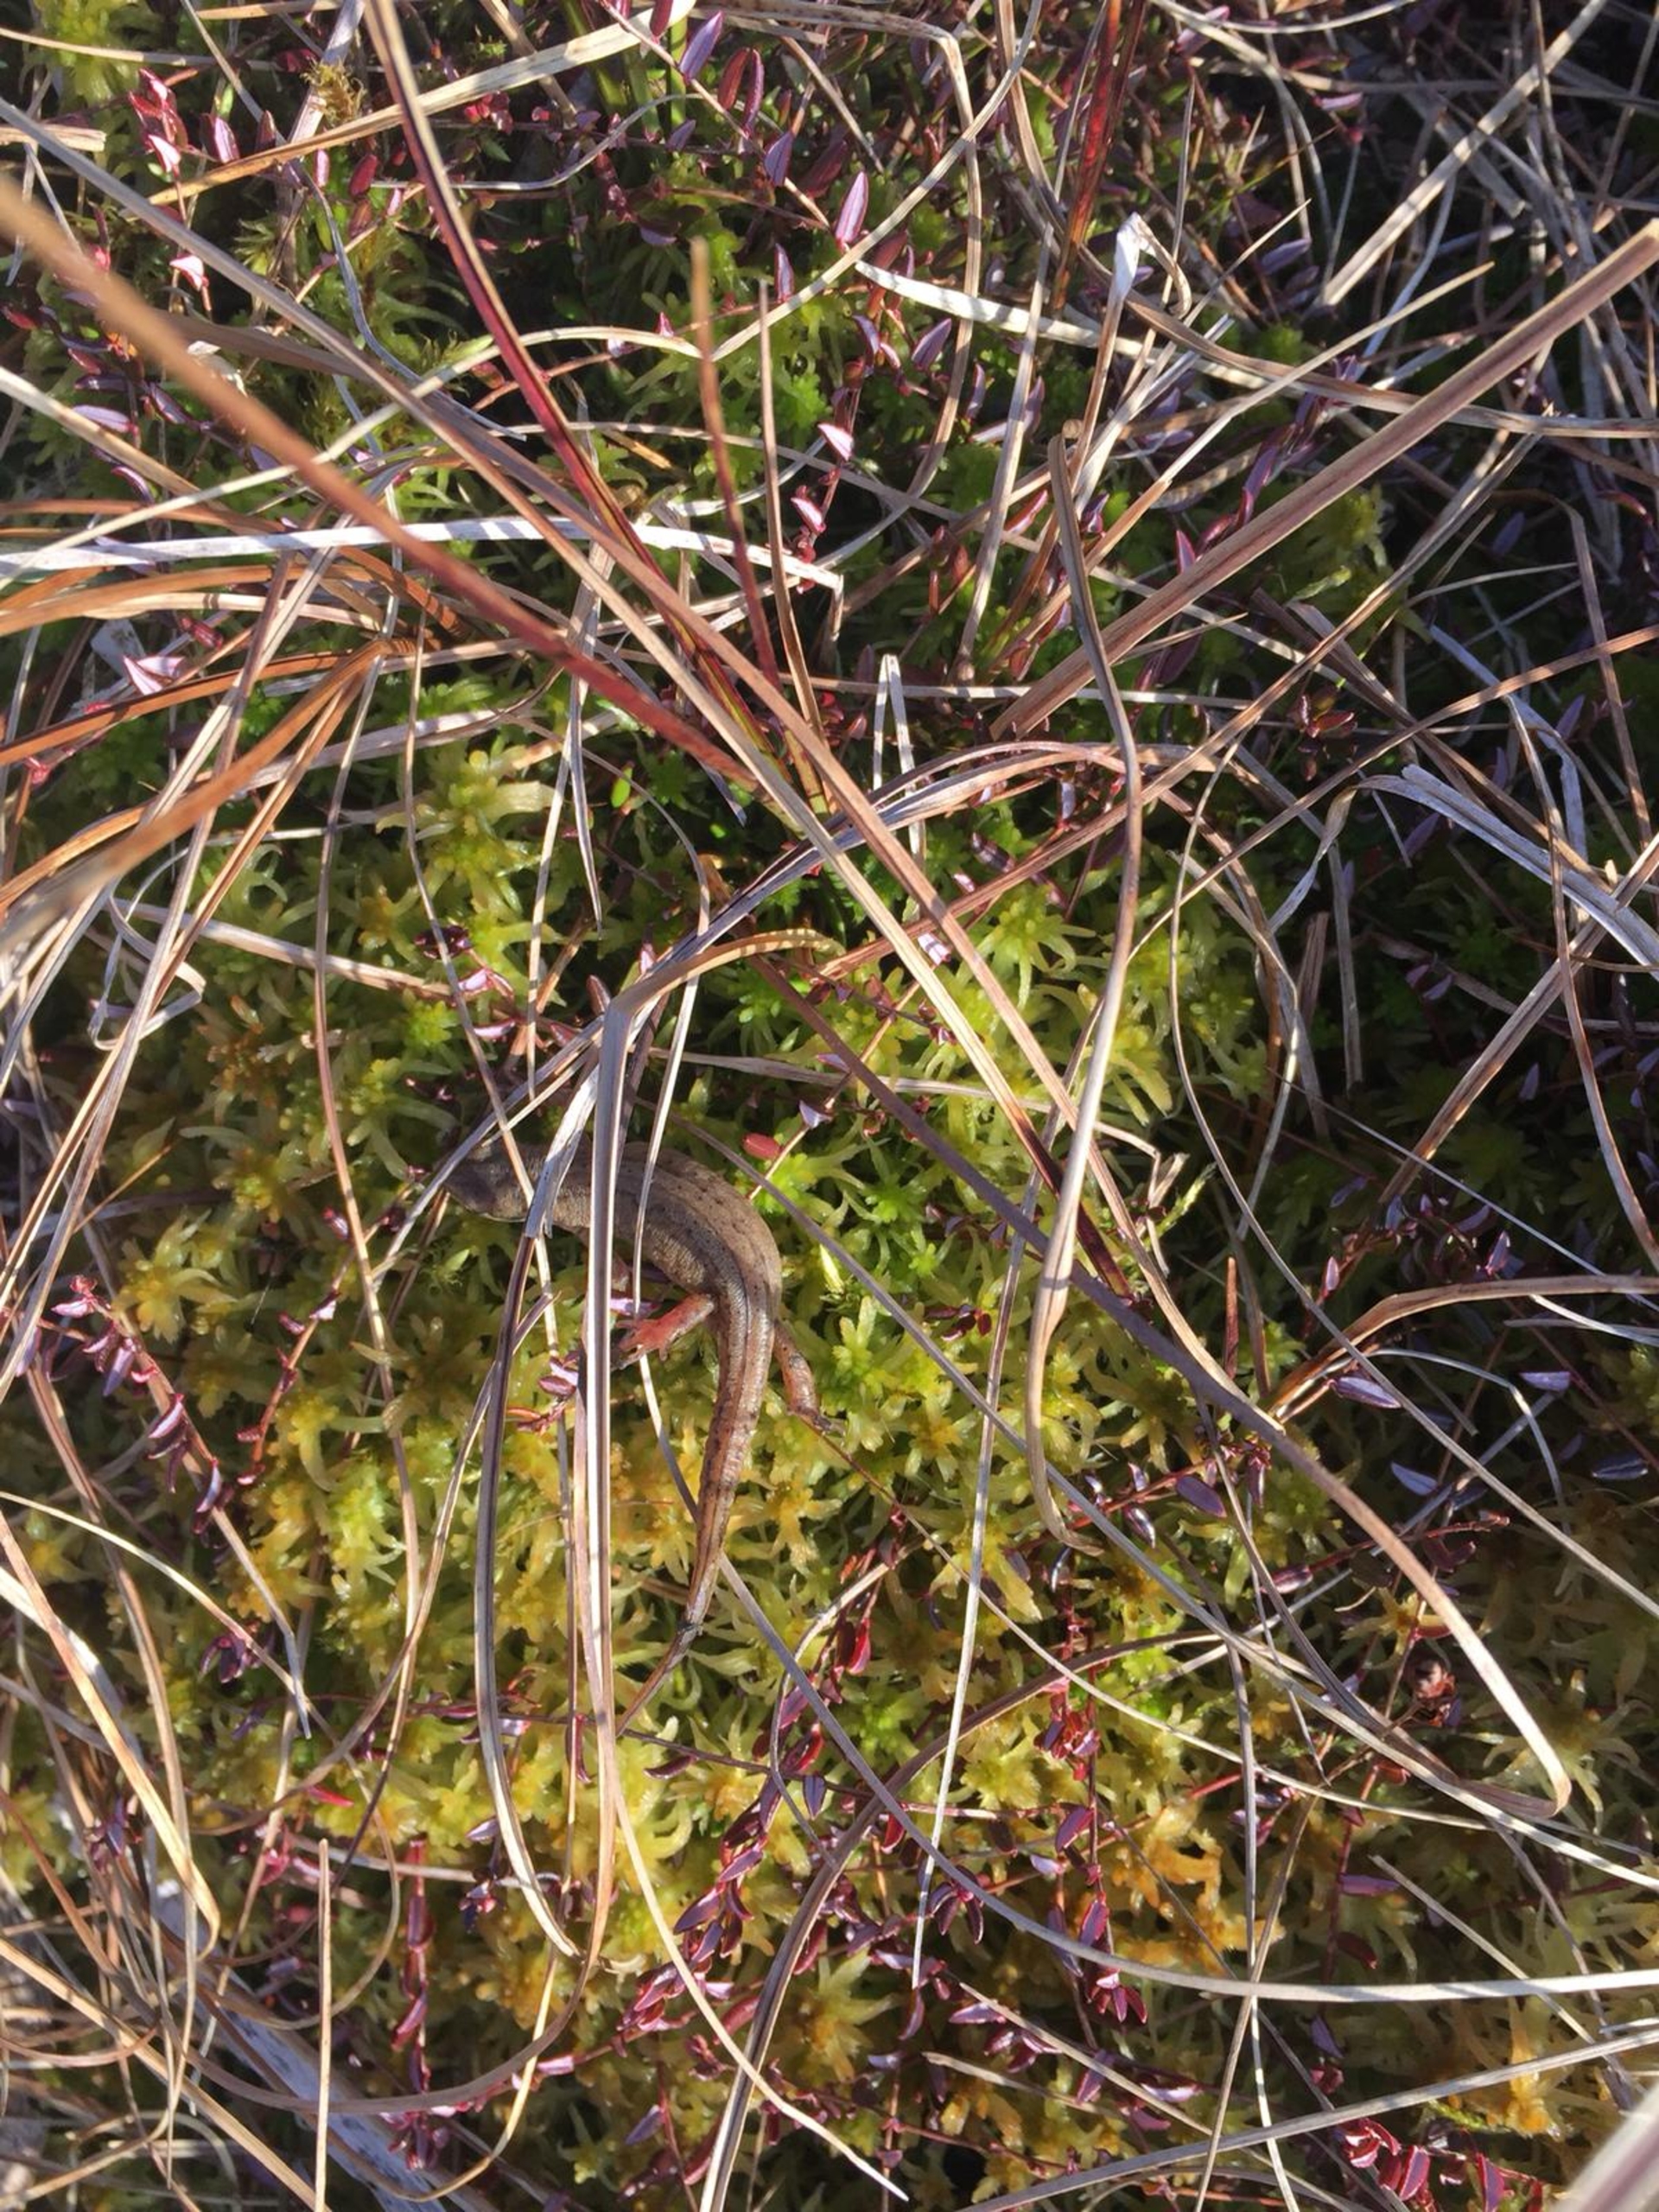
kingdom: Animalia
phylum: Chordata
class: Amphibia
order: Caudata
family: Salamandridae
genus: Lissotriton
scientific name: Lissotriton vulgaris
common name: Lille vandsalamander
